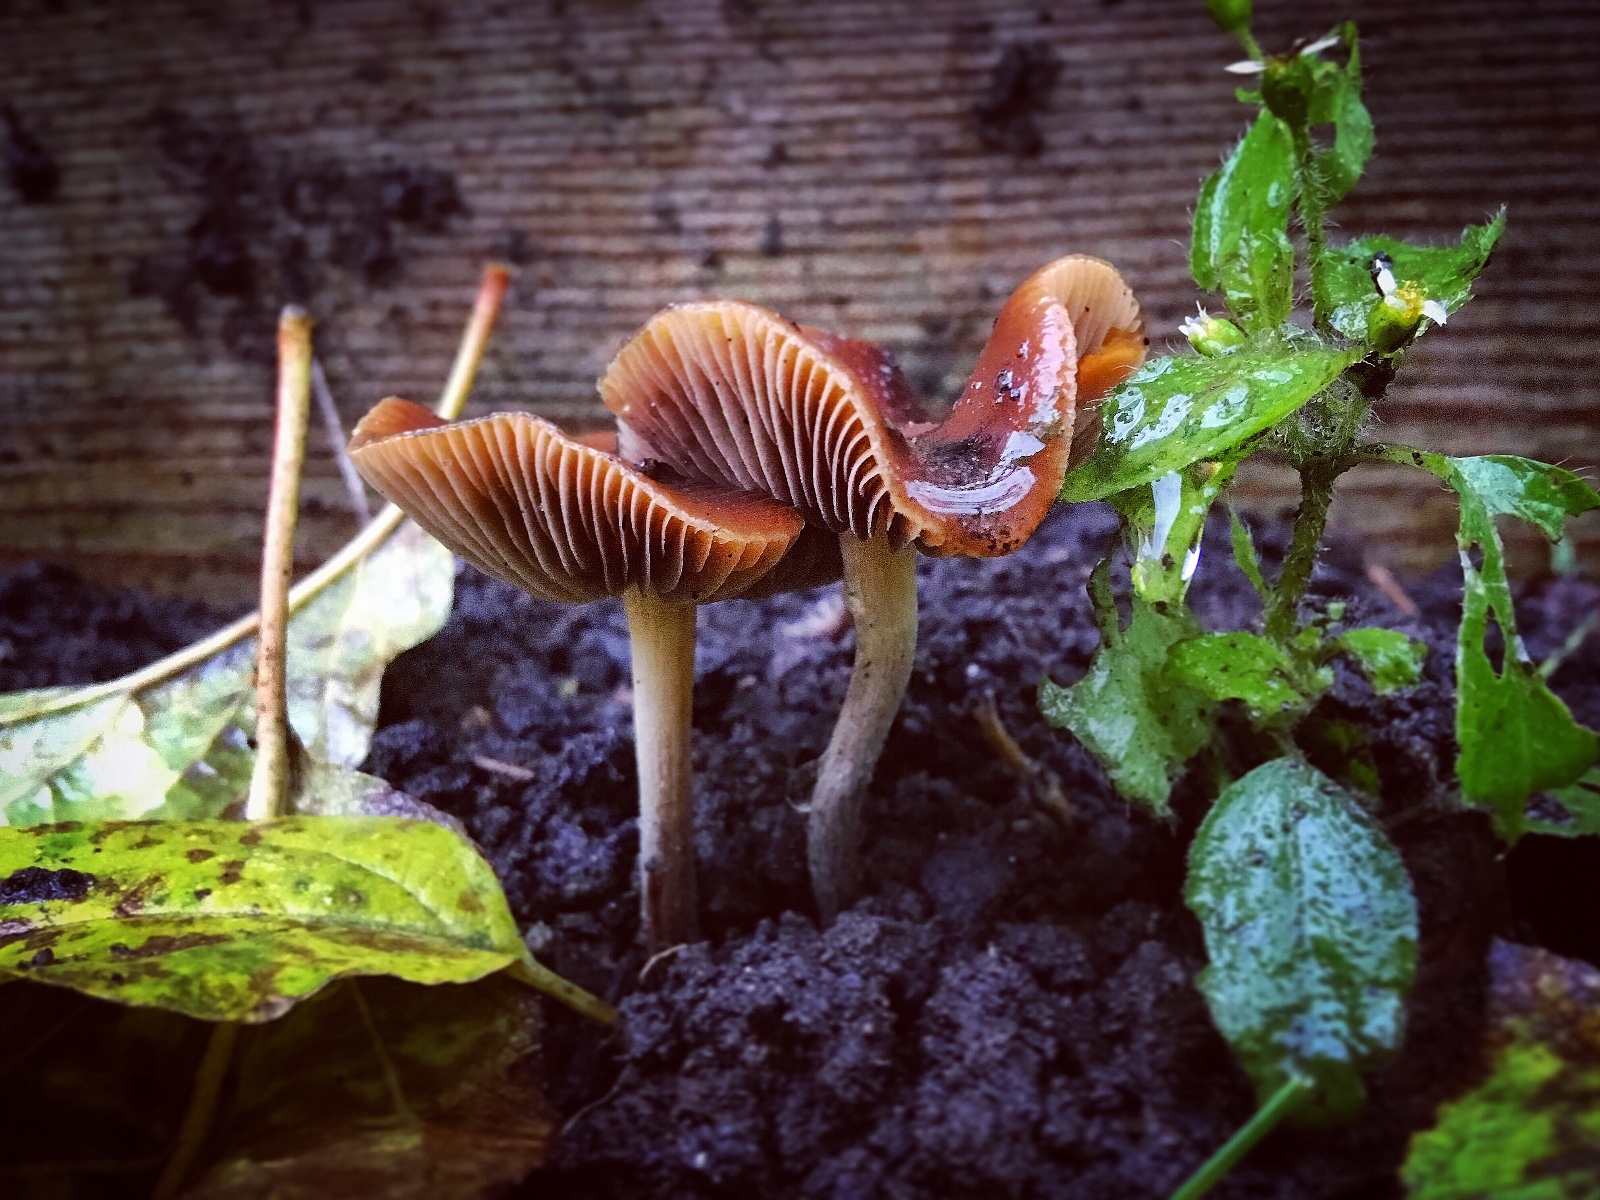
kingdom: Fungi
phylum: Basidiomycota
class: Agaricomycetes
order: Agaricales
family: Hymenogastraceae
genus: Psilocybe
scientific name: Psilocybe cyanescens
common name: blånende nøgenhat
